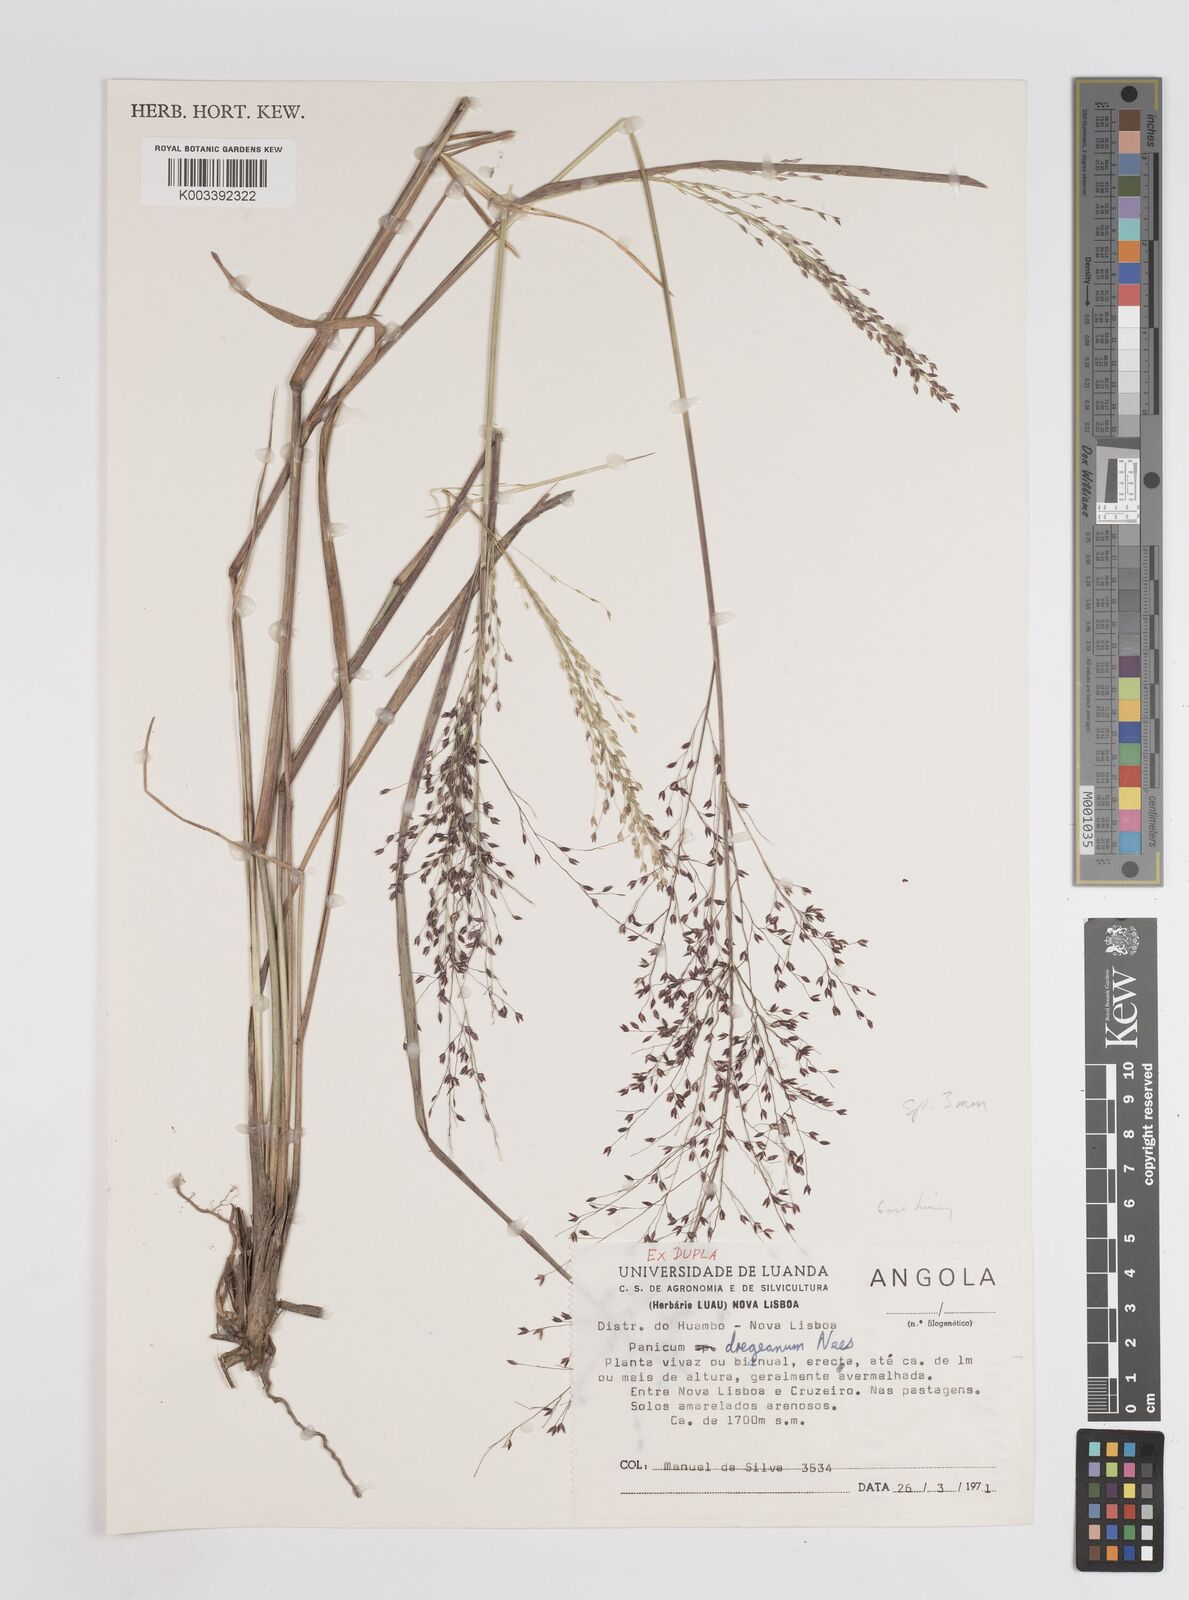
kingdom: Plantae
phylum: Tracheophyta
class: Liliopsida
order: Poales
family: Poaceae
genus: Panicum
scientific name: Panicum fluviicola
